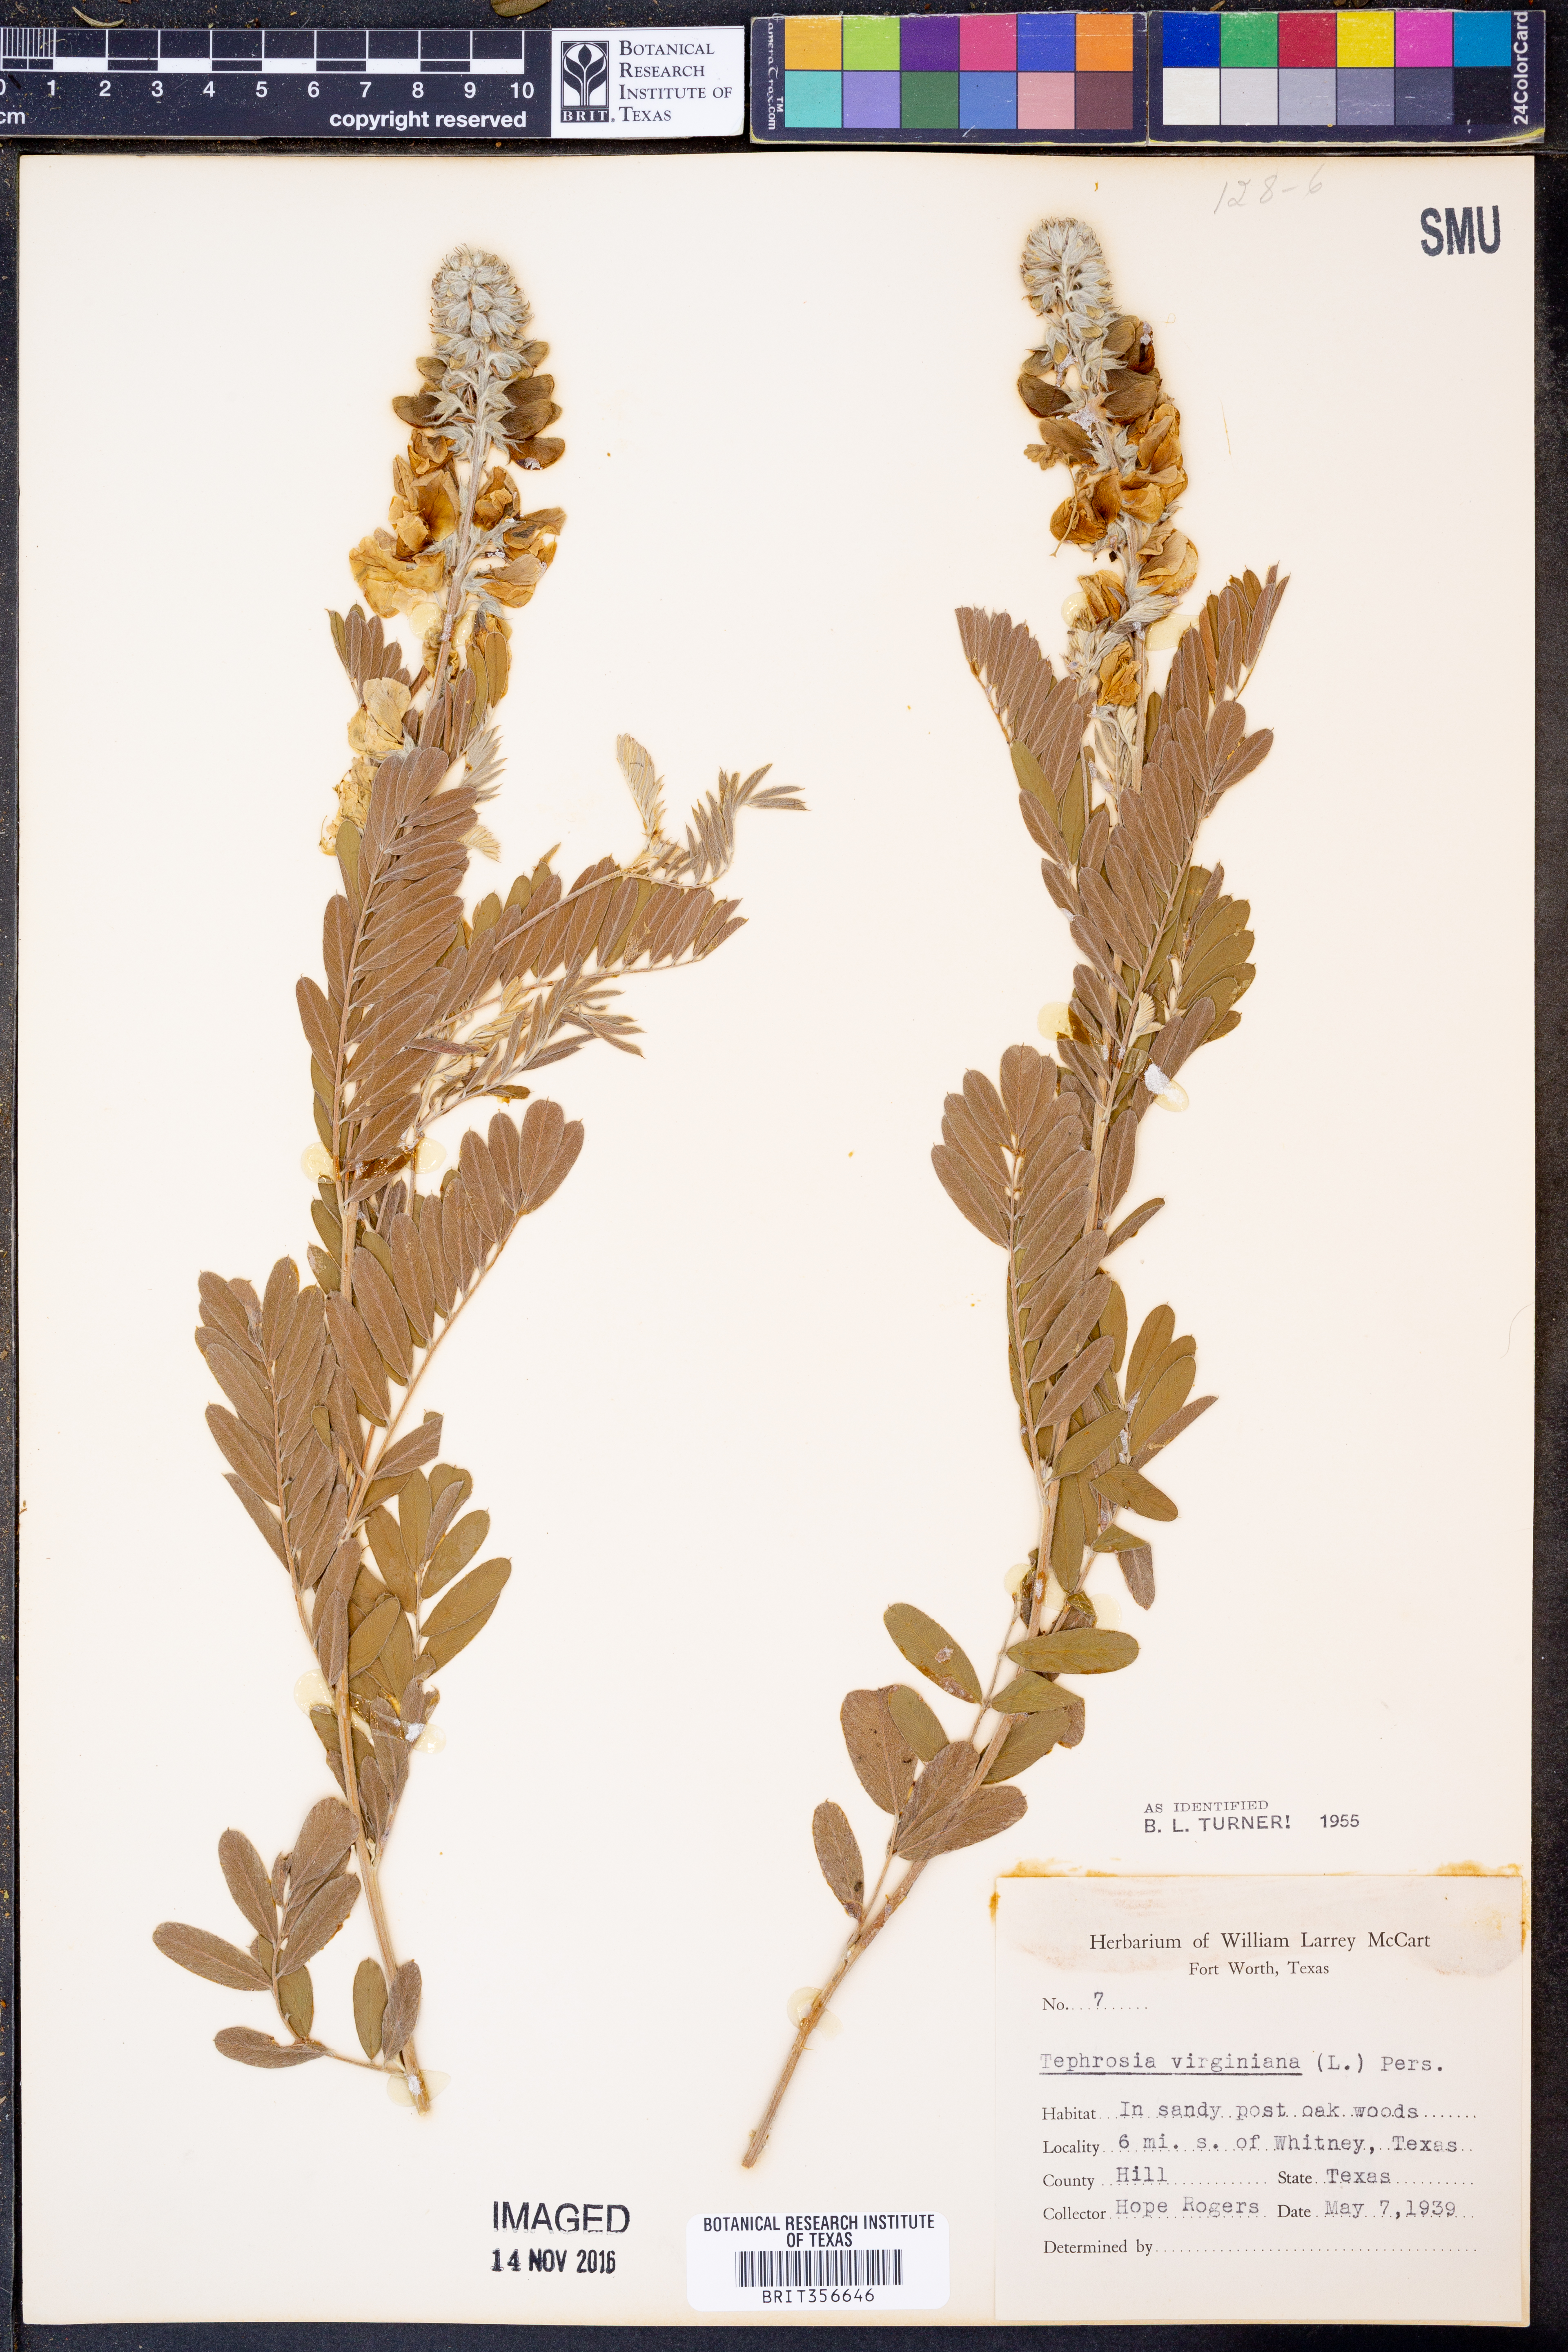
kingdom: Plantae
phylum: Tracheophyta
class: Magnoliopsida
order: Fabales
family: Fabaceae
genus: Tephrosia
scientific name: Tephrosia virginiana
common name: Rabbit-pea
